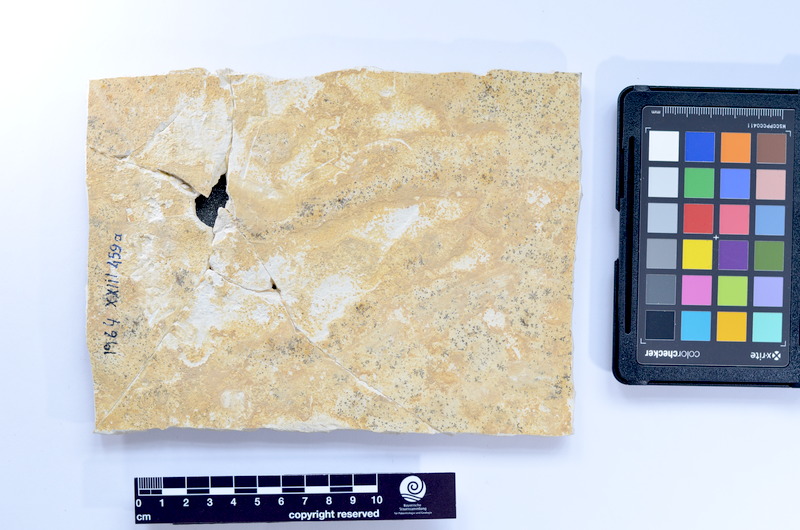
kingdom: Animalia
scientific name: Animalia
